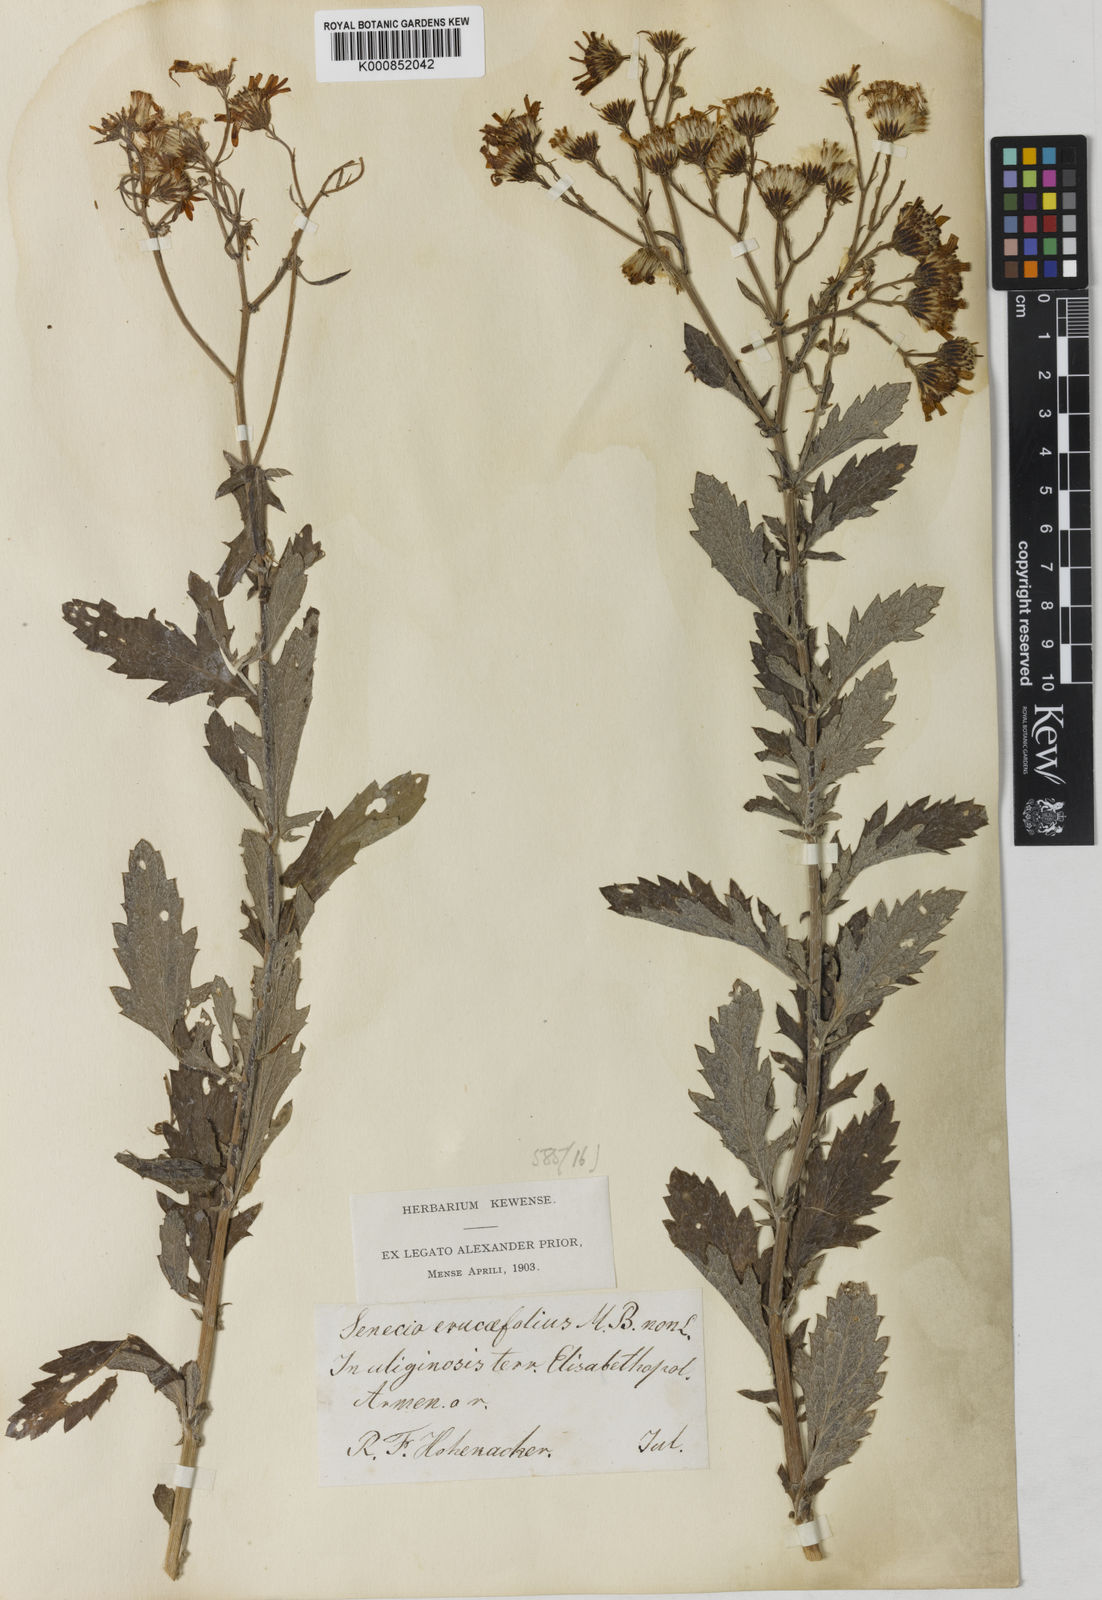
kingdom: Plantae
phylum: Tracheophyta
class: Magnoliopsida
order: Asterales
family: Asteraceae
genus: Jacobaea
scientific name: Jacobaea erucifolia
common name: Hoary ragwort
